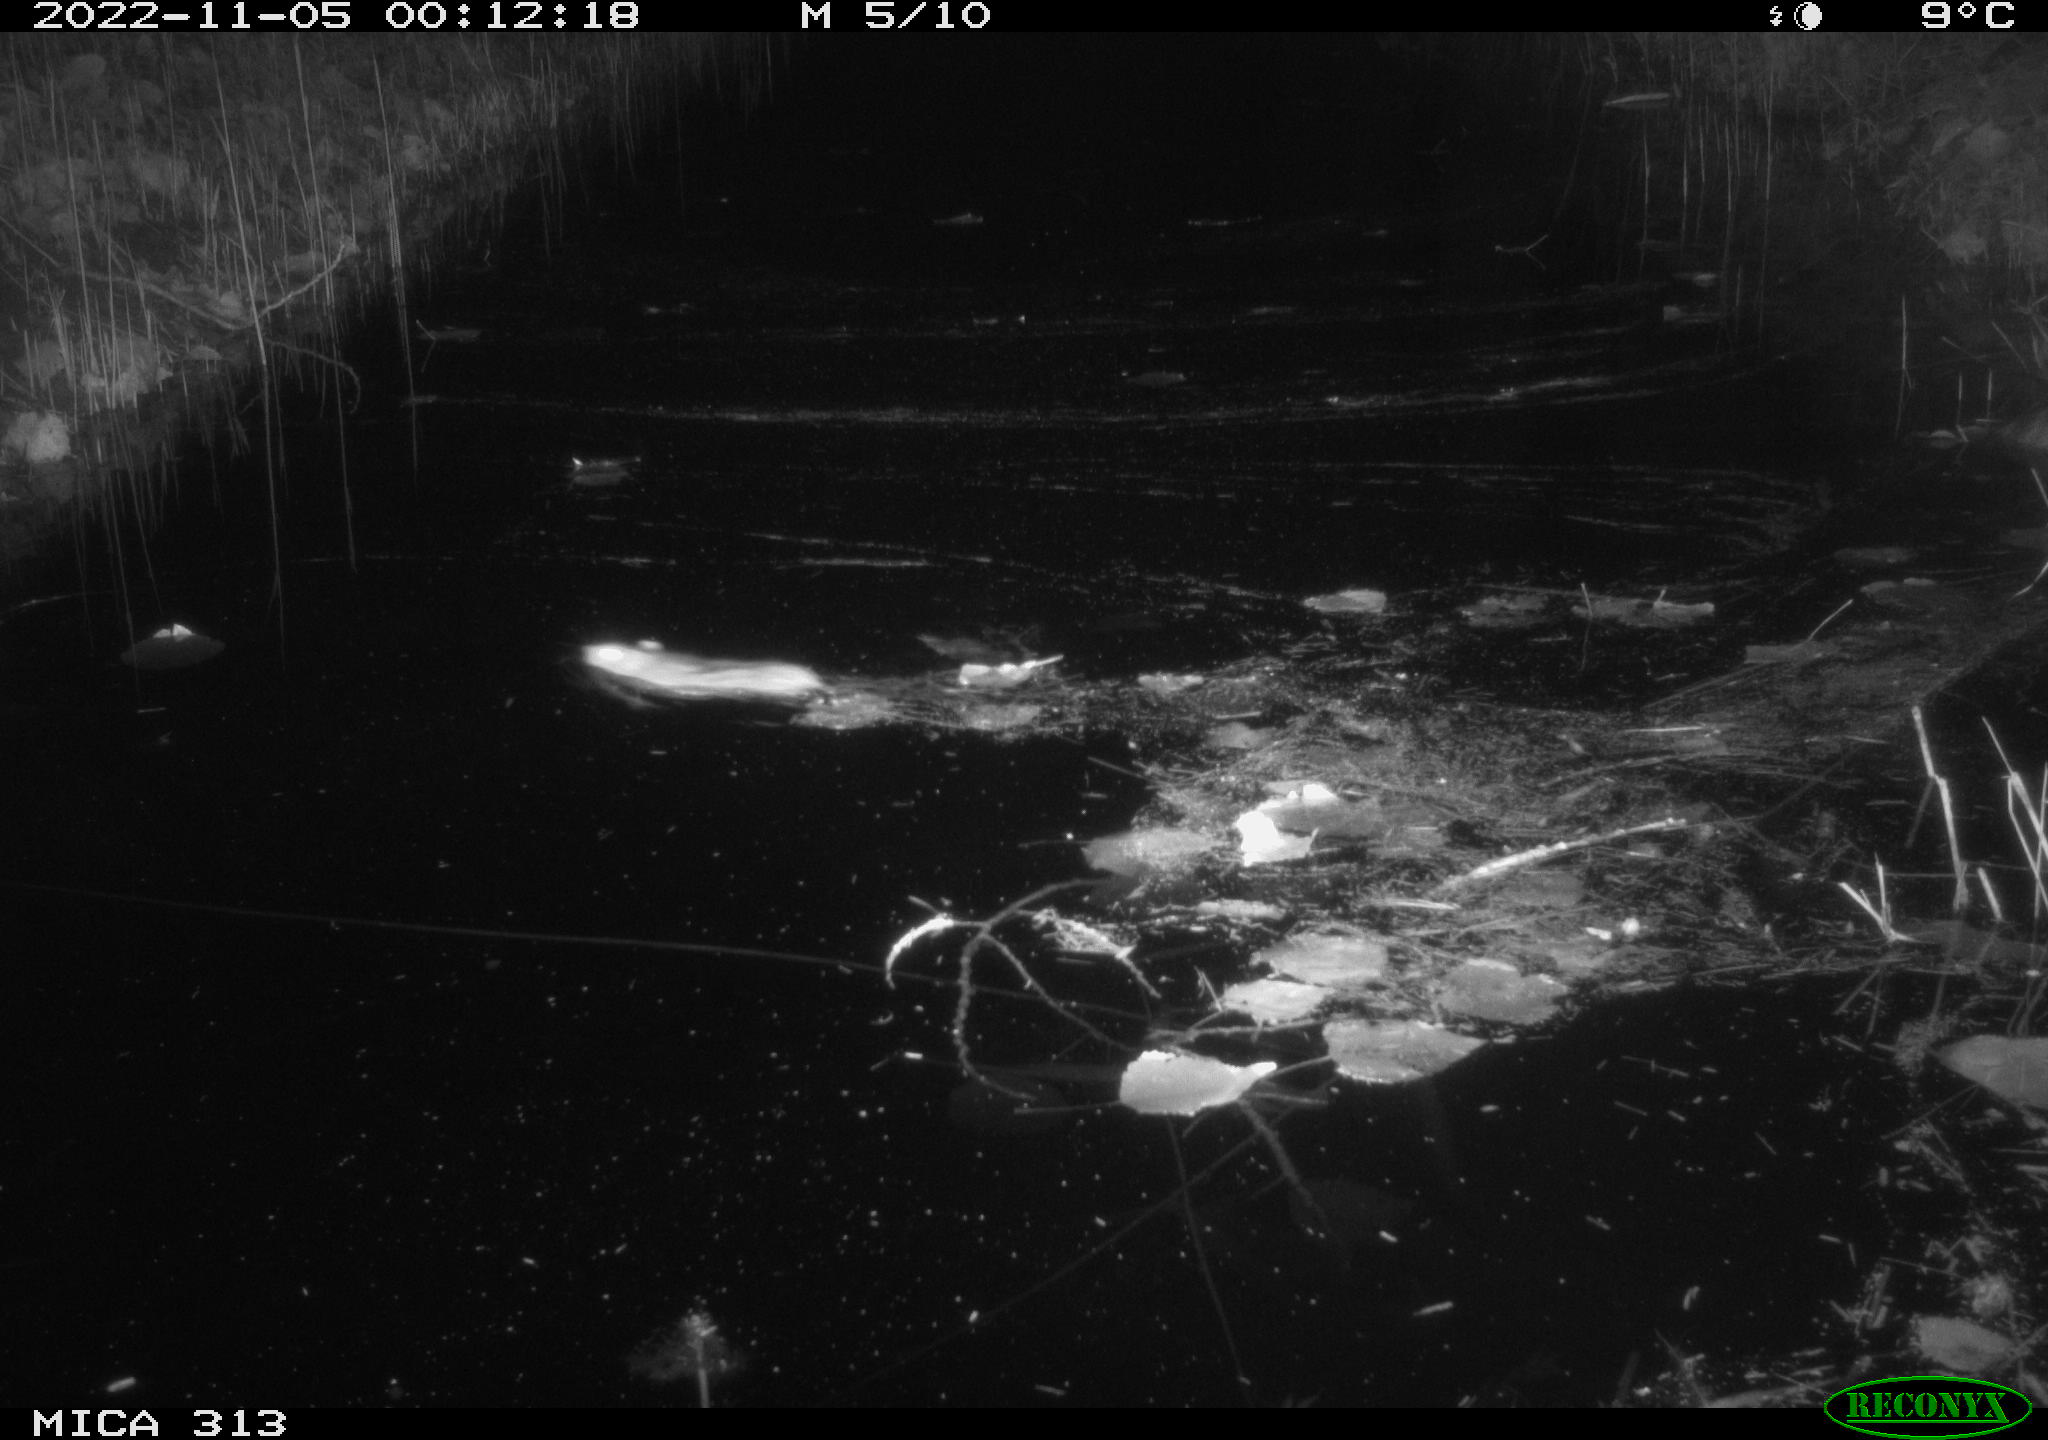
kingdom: Animalia
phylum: Chordata
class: Mammalia
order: Rodentia
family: Muridae
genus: Rattus
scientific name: Rattus norvegicus
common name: Brown rat
